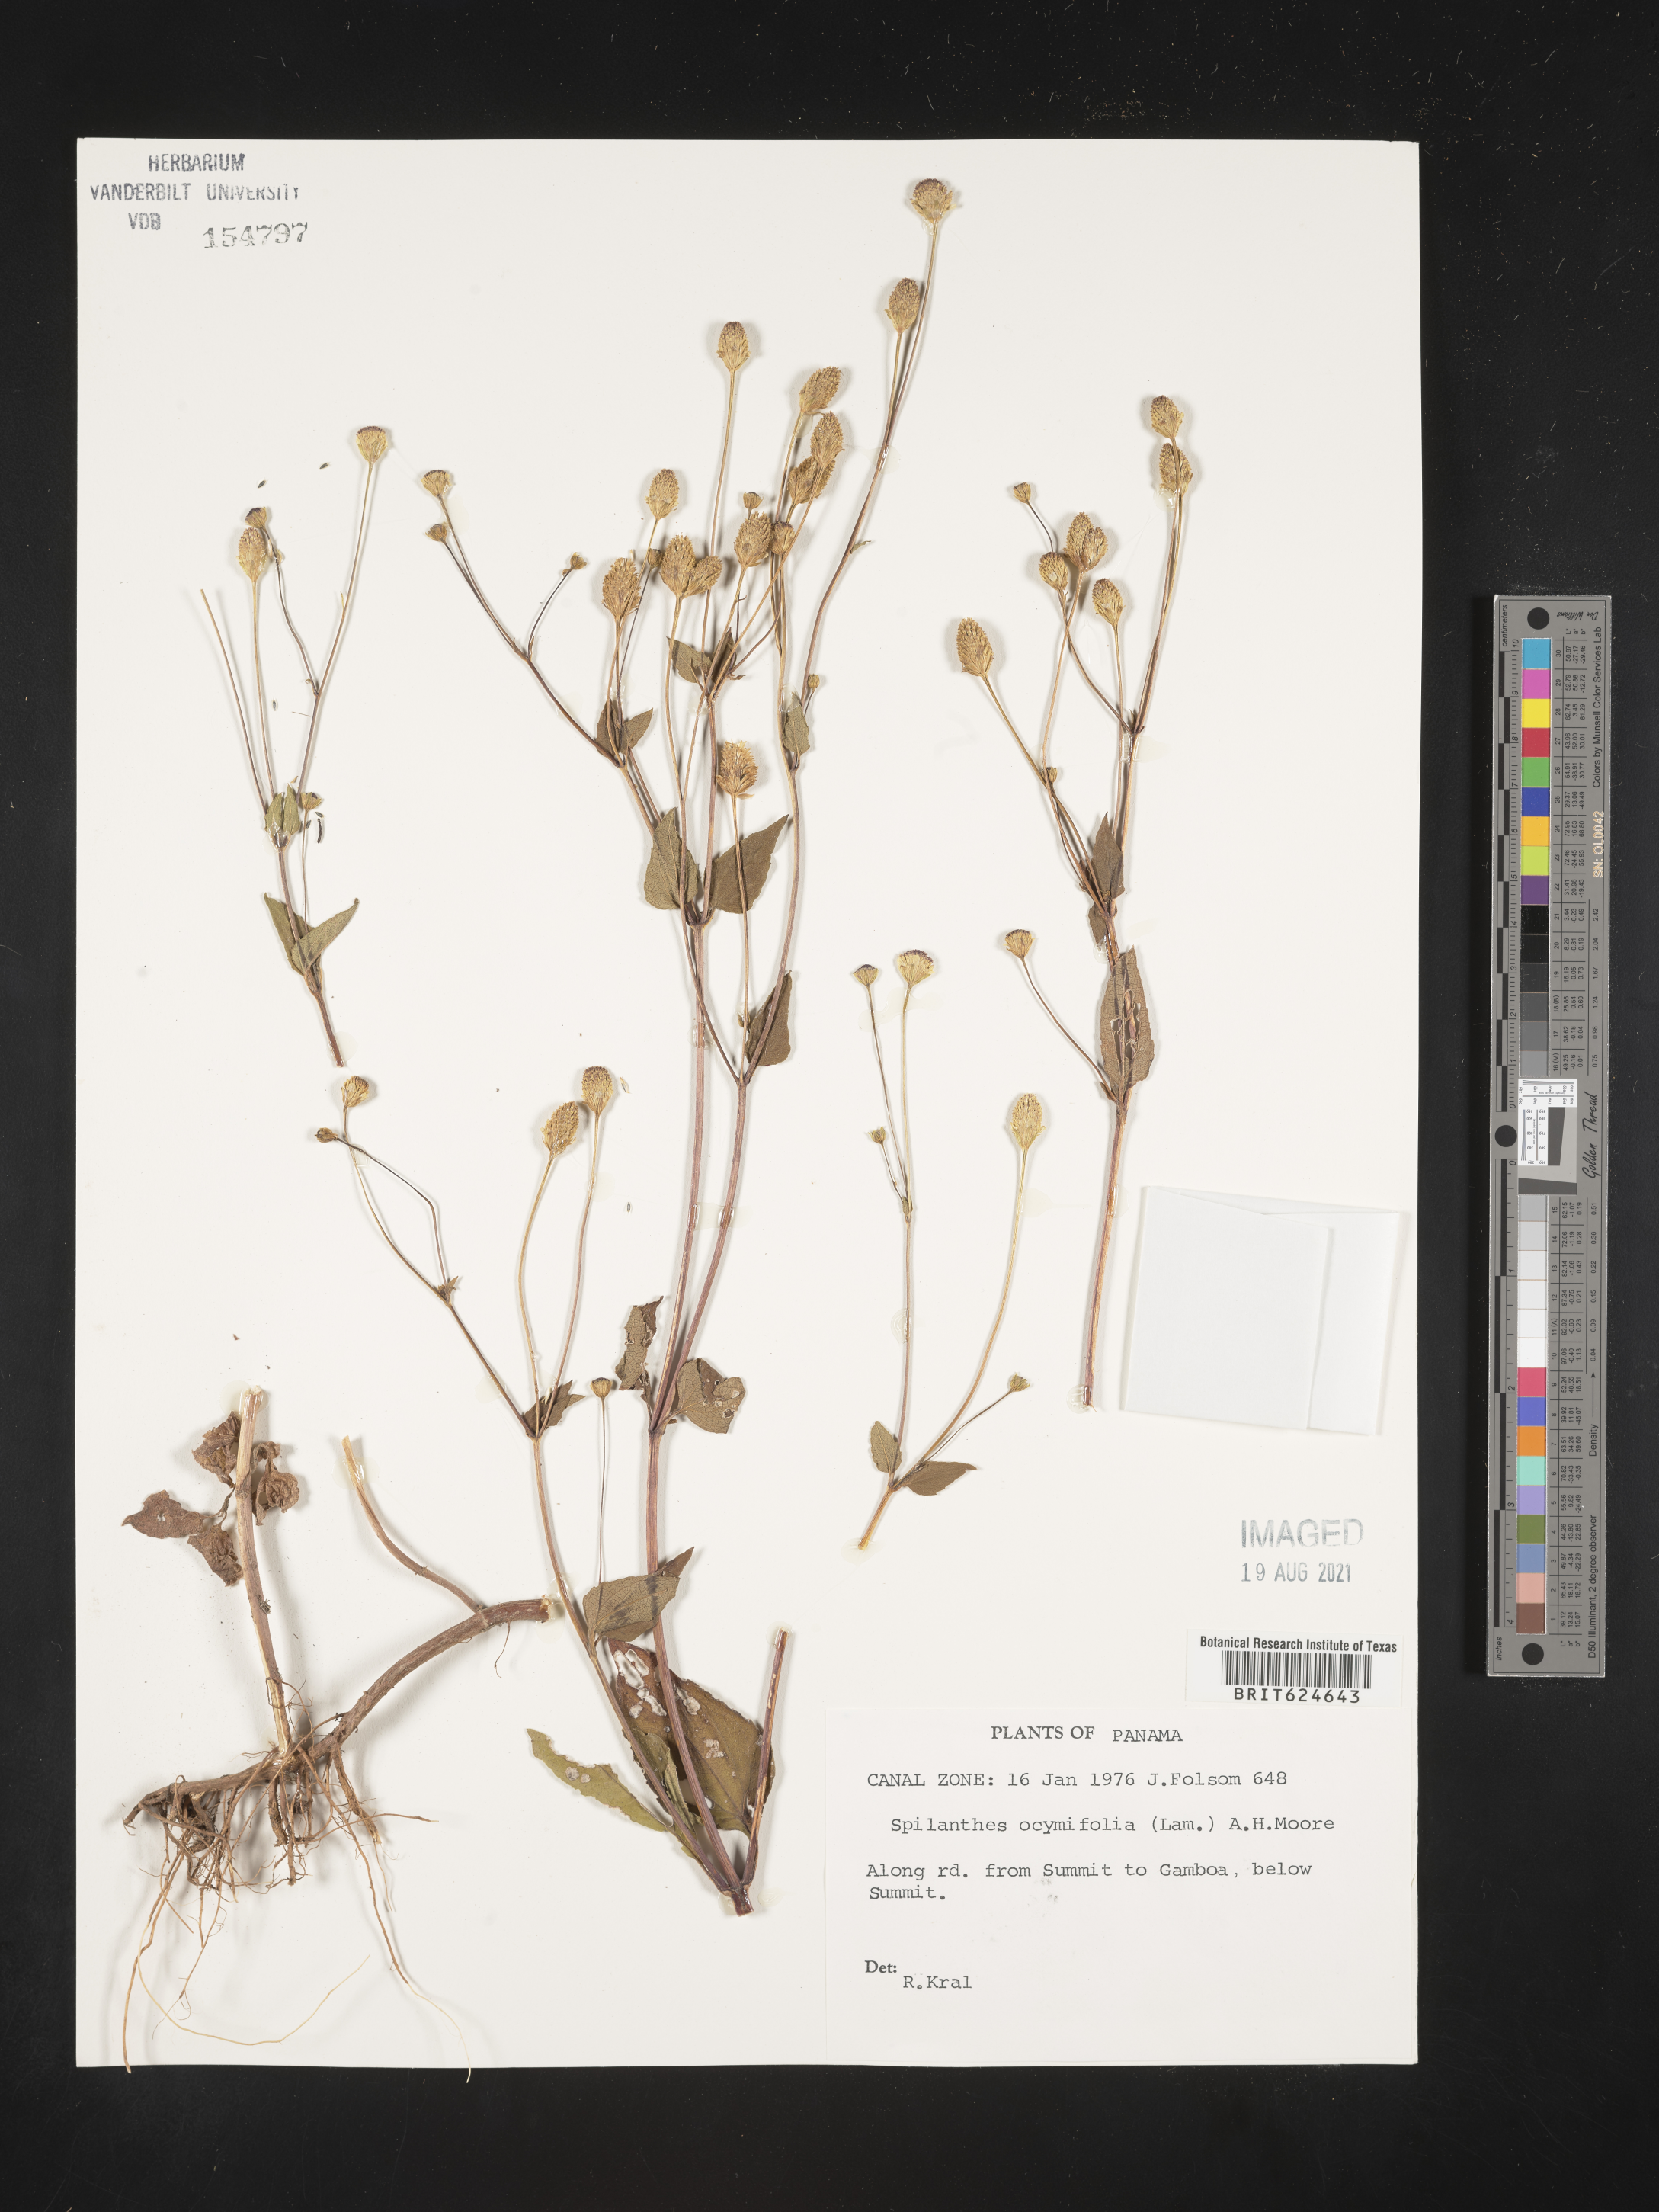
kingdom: Plantae
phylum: Tracheophyta
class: Magnoliopsida
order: Asterales
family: Asteraceae
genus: Acmella
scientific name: Acmella
